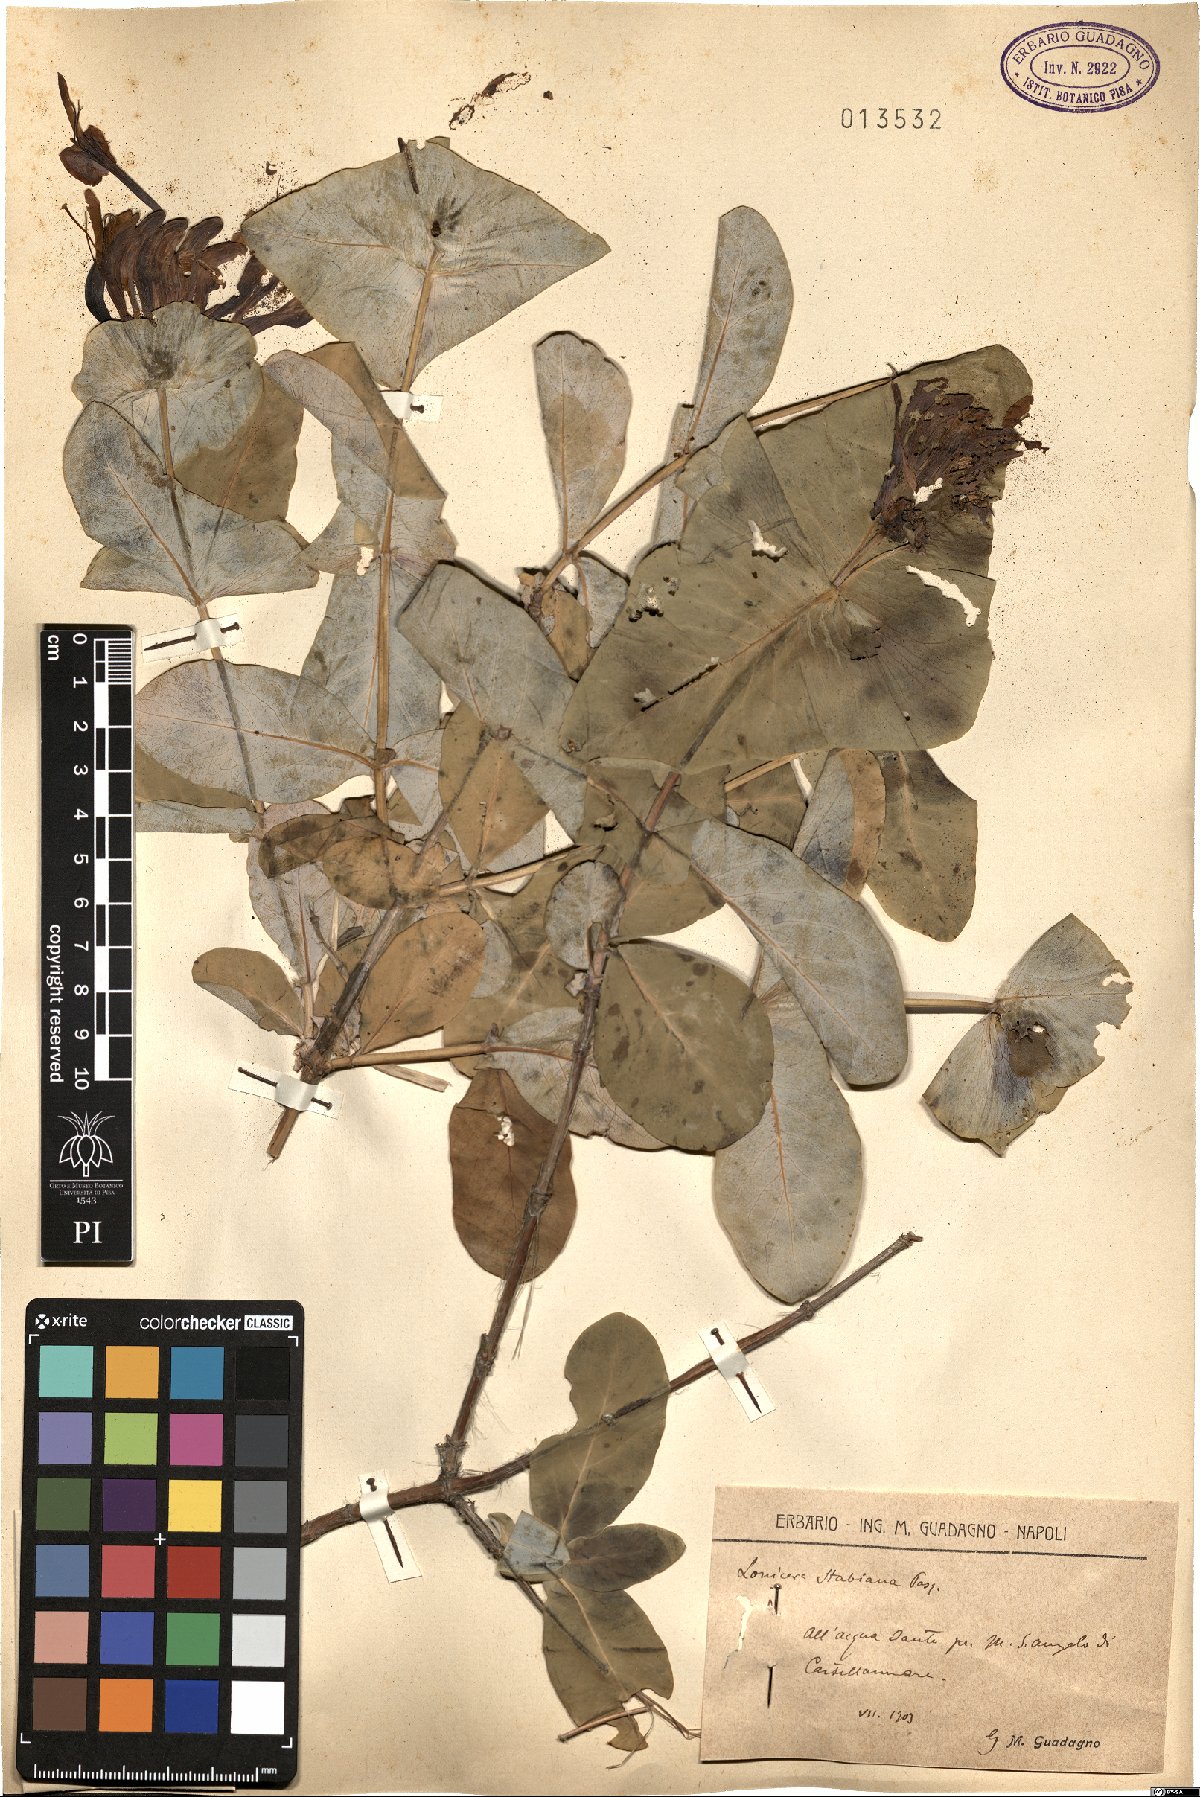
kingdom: Plantae
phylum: Tracheophyta
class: Magnoliopsida
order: Dipsacales
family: Caprifoliaceae
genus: Lonicera
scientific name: Lonicera stabiana
